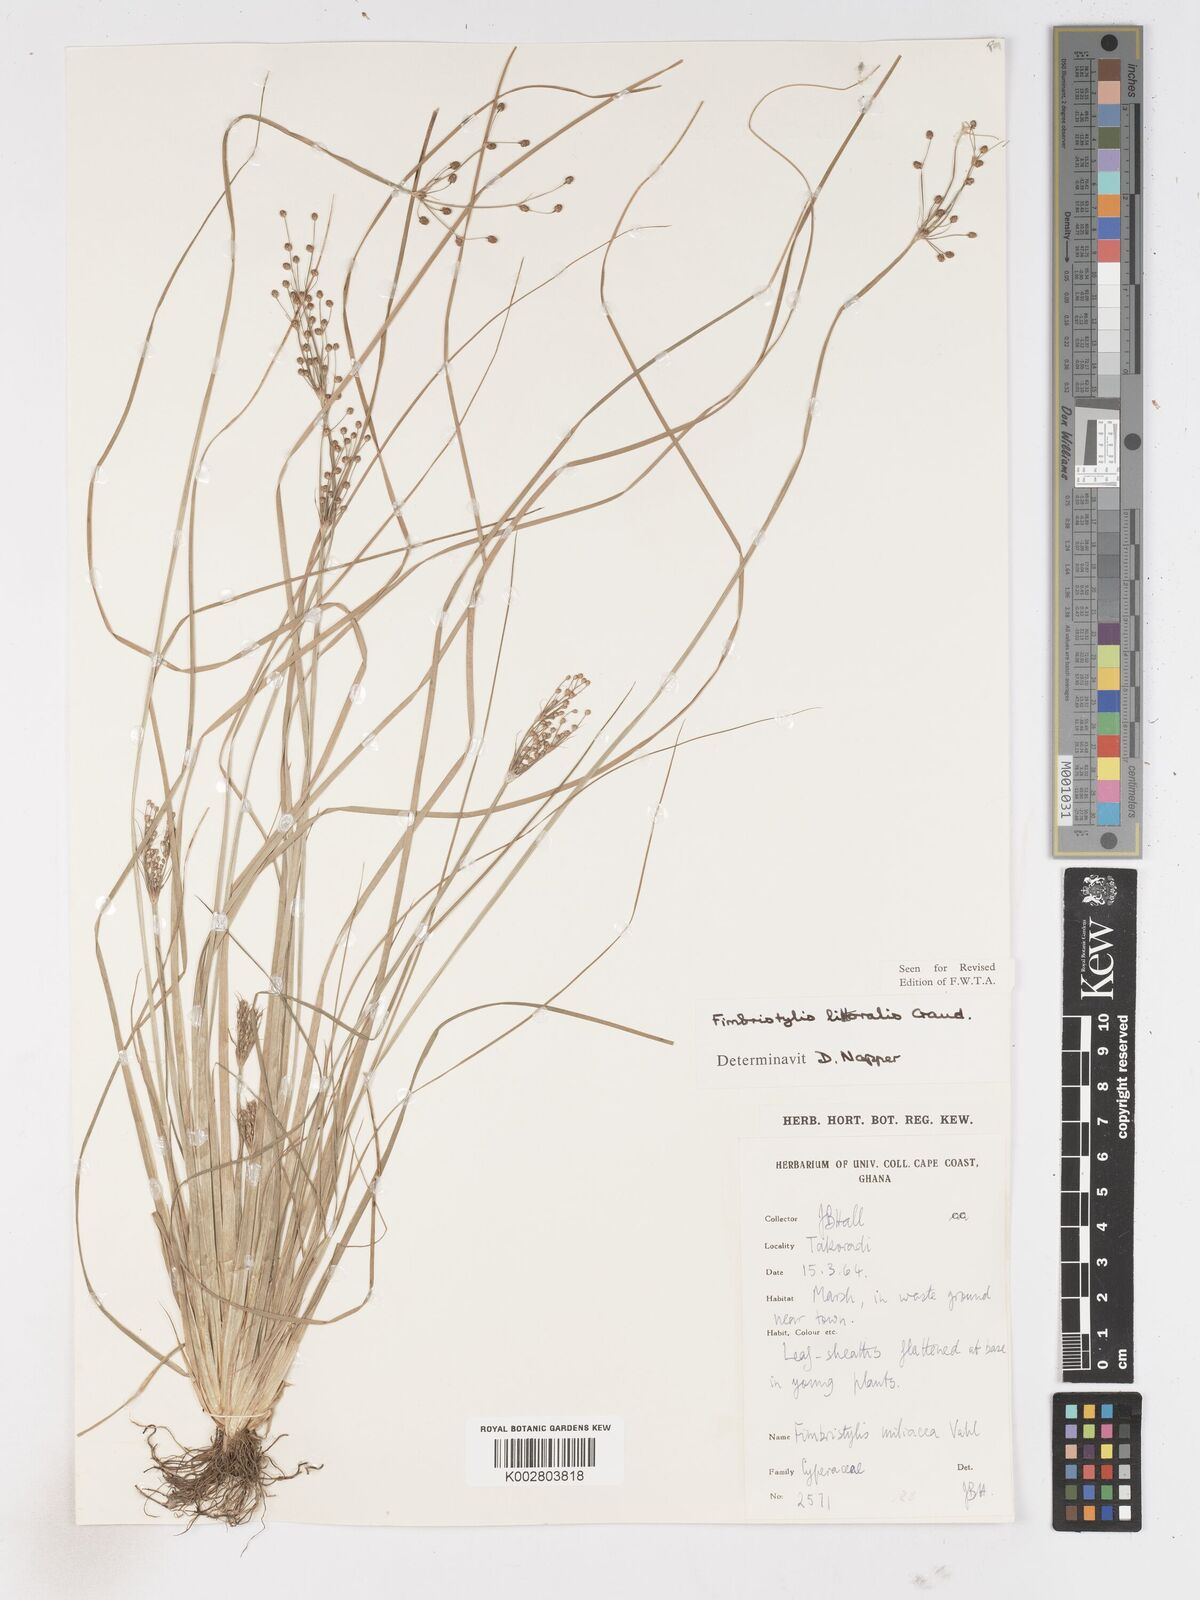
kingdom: Plantae
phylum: Tracheophyta
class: Liliopsida
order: Poales
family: Cyperaceae
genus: Fimbristylis
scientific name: Fimbristylis littoralis
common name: Fimbry
